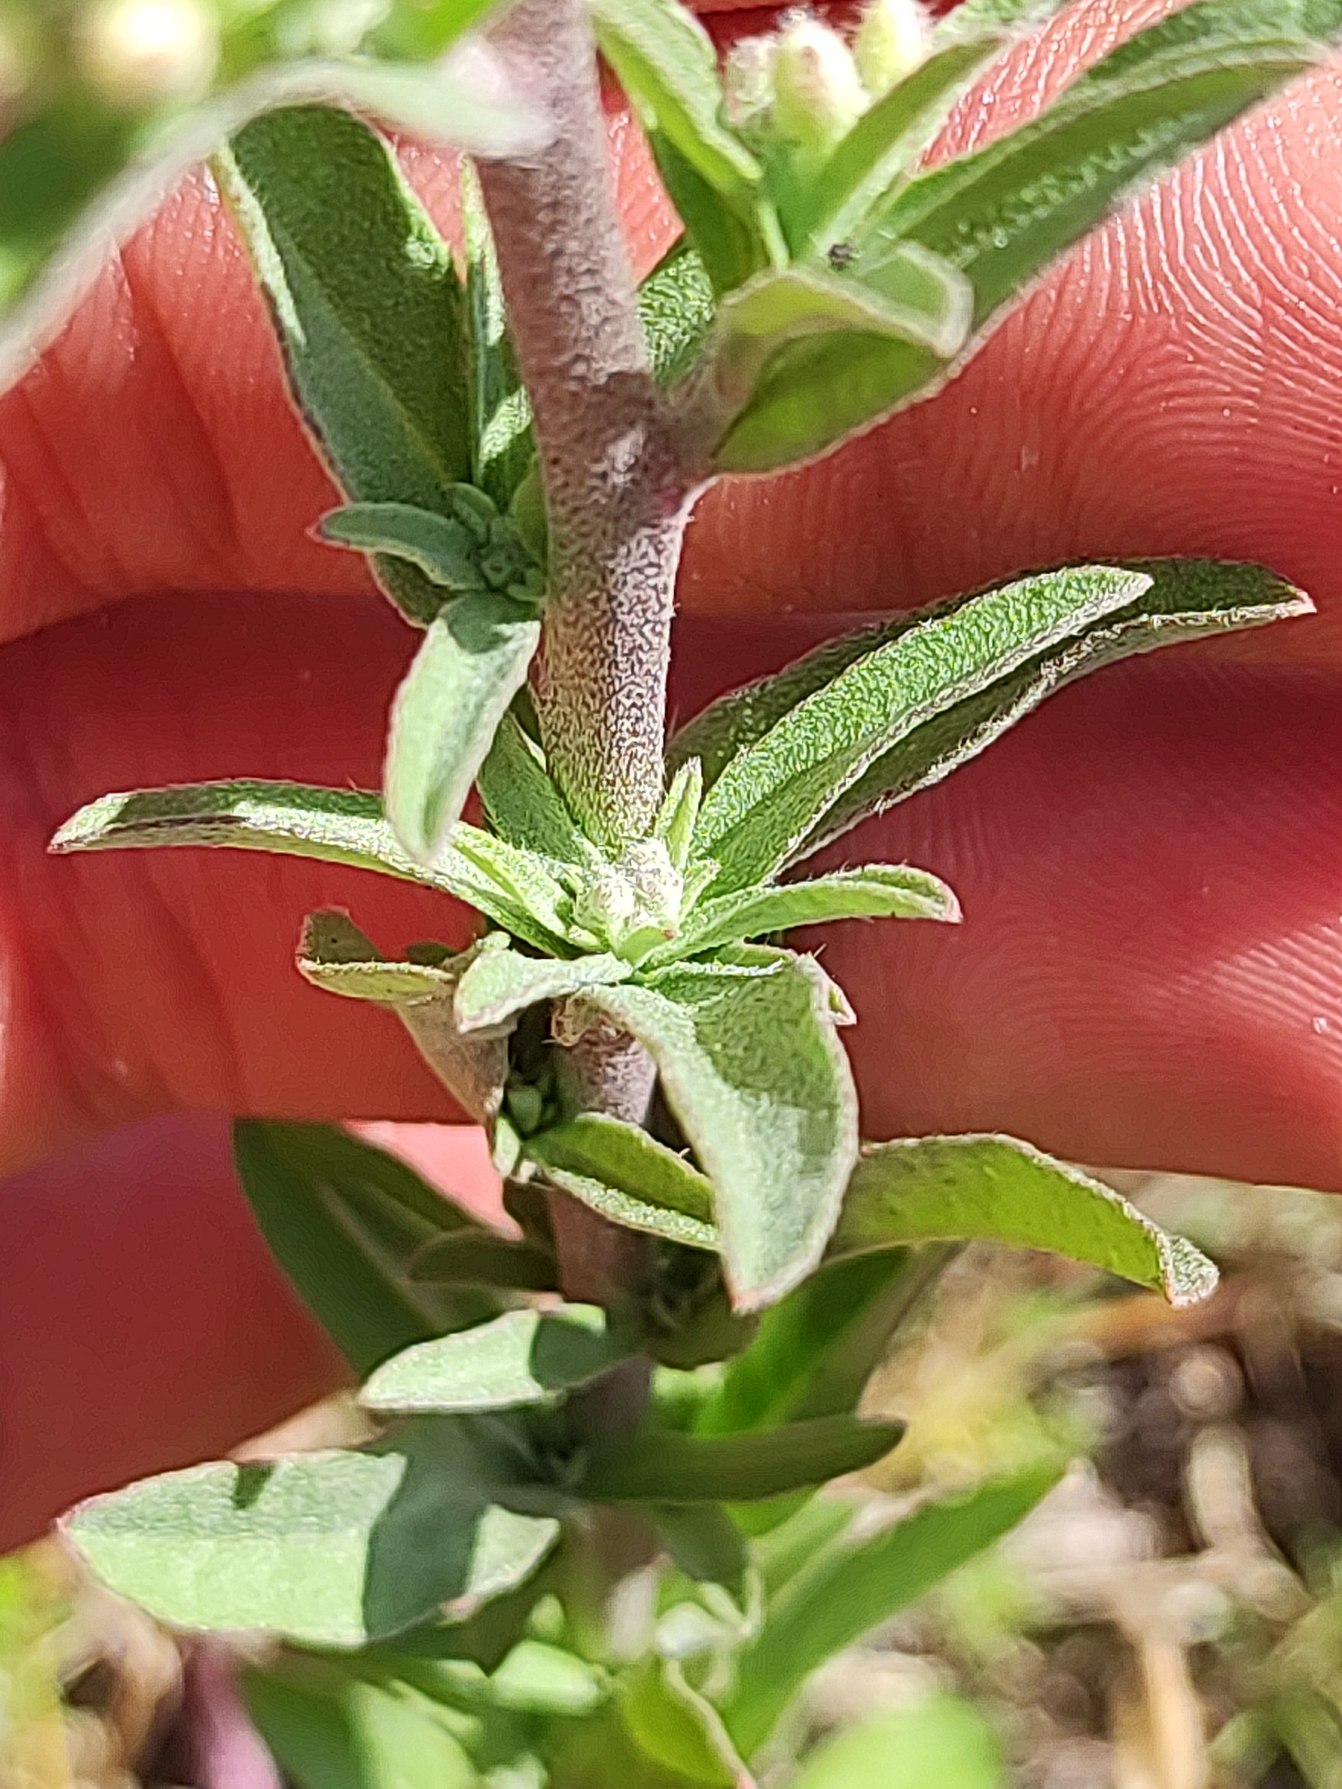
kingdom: Plantae
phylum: Tracheophyta
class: Magnoliopsida
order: Brassicales
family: Brassicaceae
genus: Berteroa
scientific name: Berteroa incana
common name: Kløvplade
